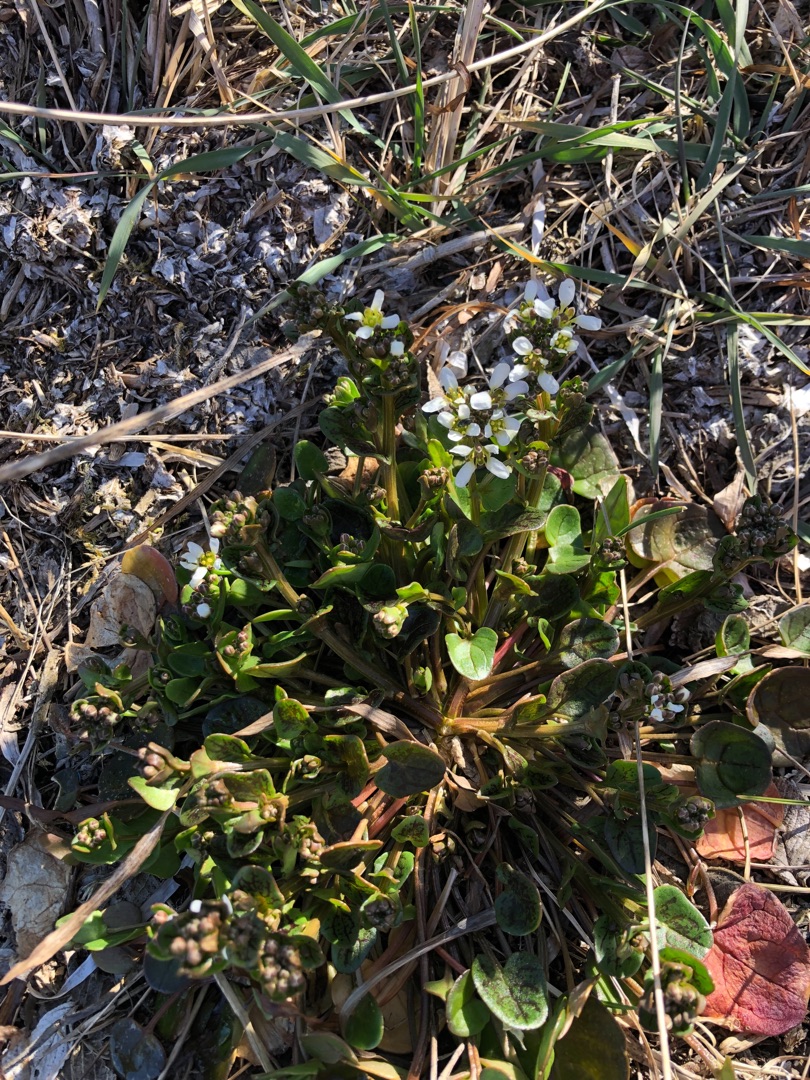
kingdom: Plantae
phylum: Tracheophyta
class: Magnoliopsida
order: Brassicales
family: Brassicaceae
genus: Cochlearia
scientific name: Cochlearia officinalis
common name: Læge-kokleare (underart)
